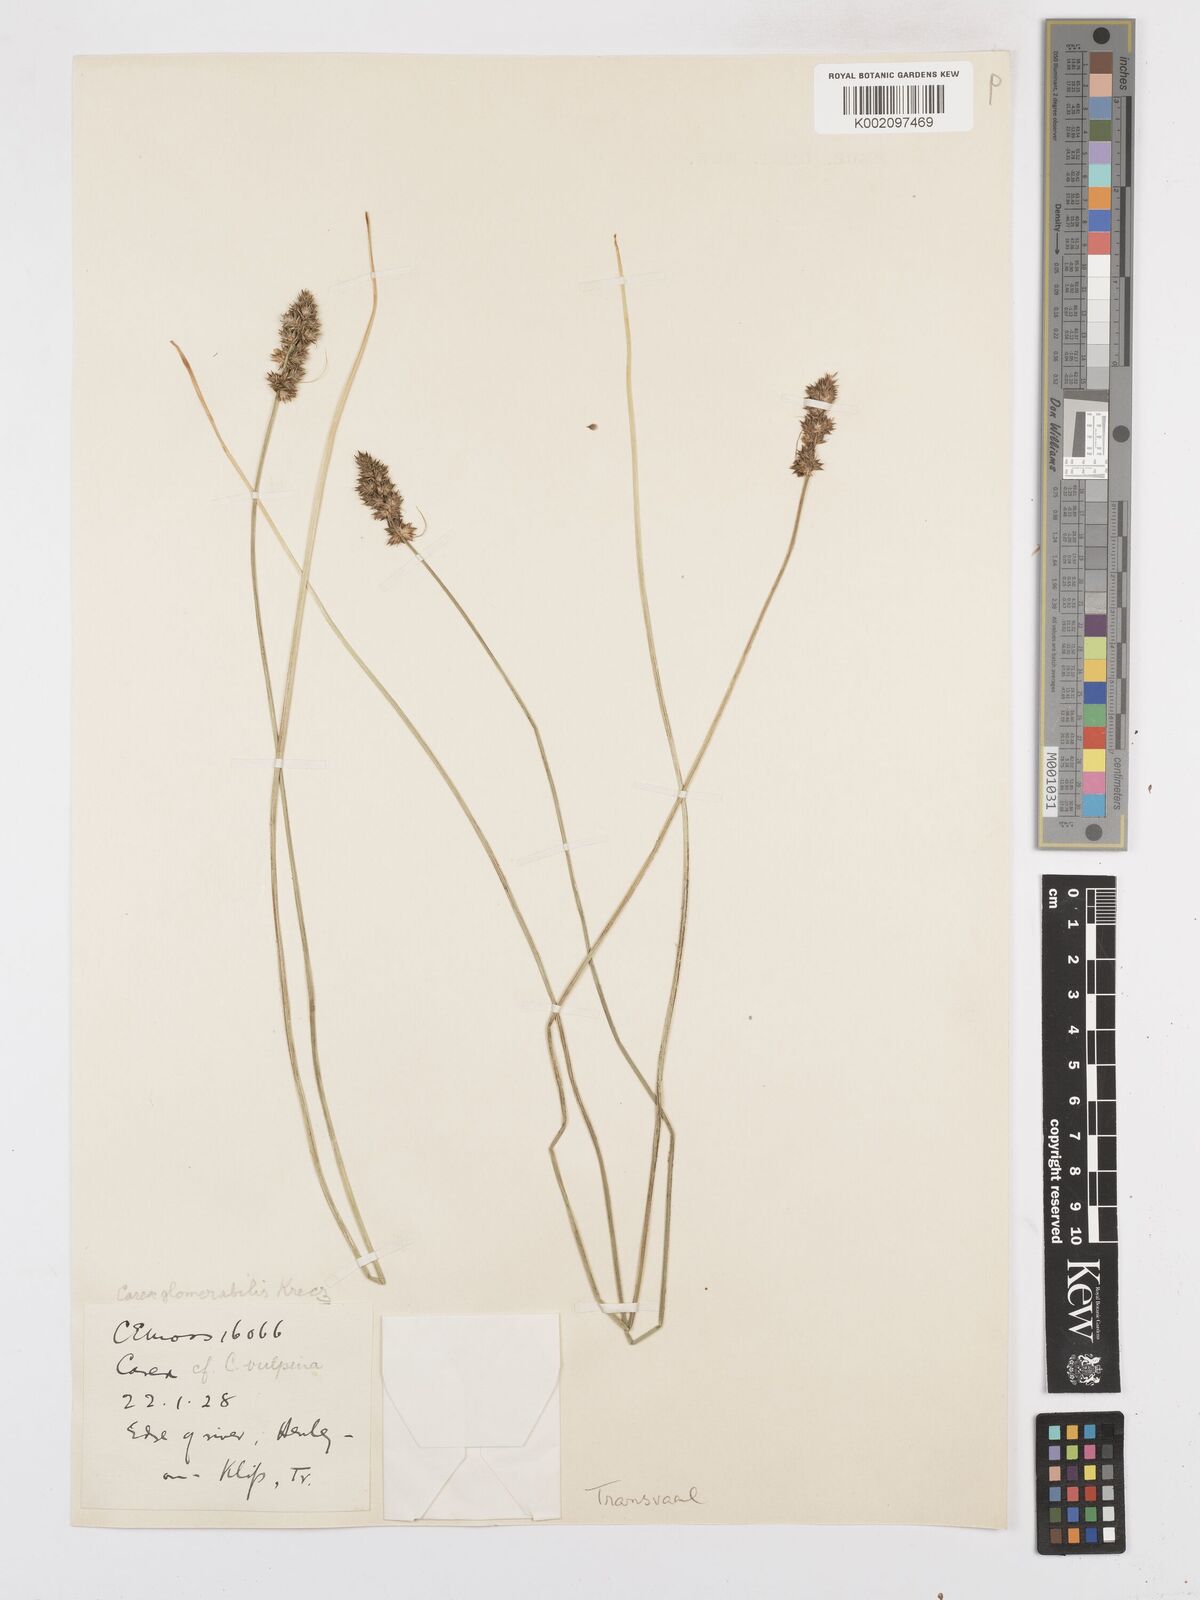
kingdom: Plantae
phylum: Tracheophyta
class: Liliopsida
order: Poales
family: Cyperaceae
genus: Carex
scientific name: Carex glomerata
